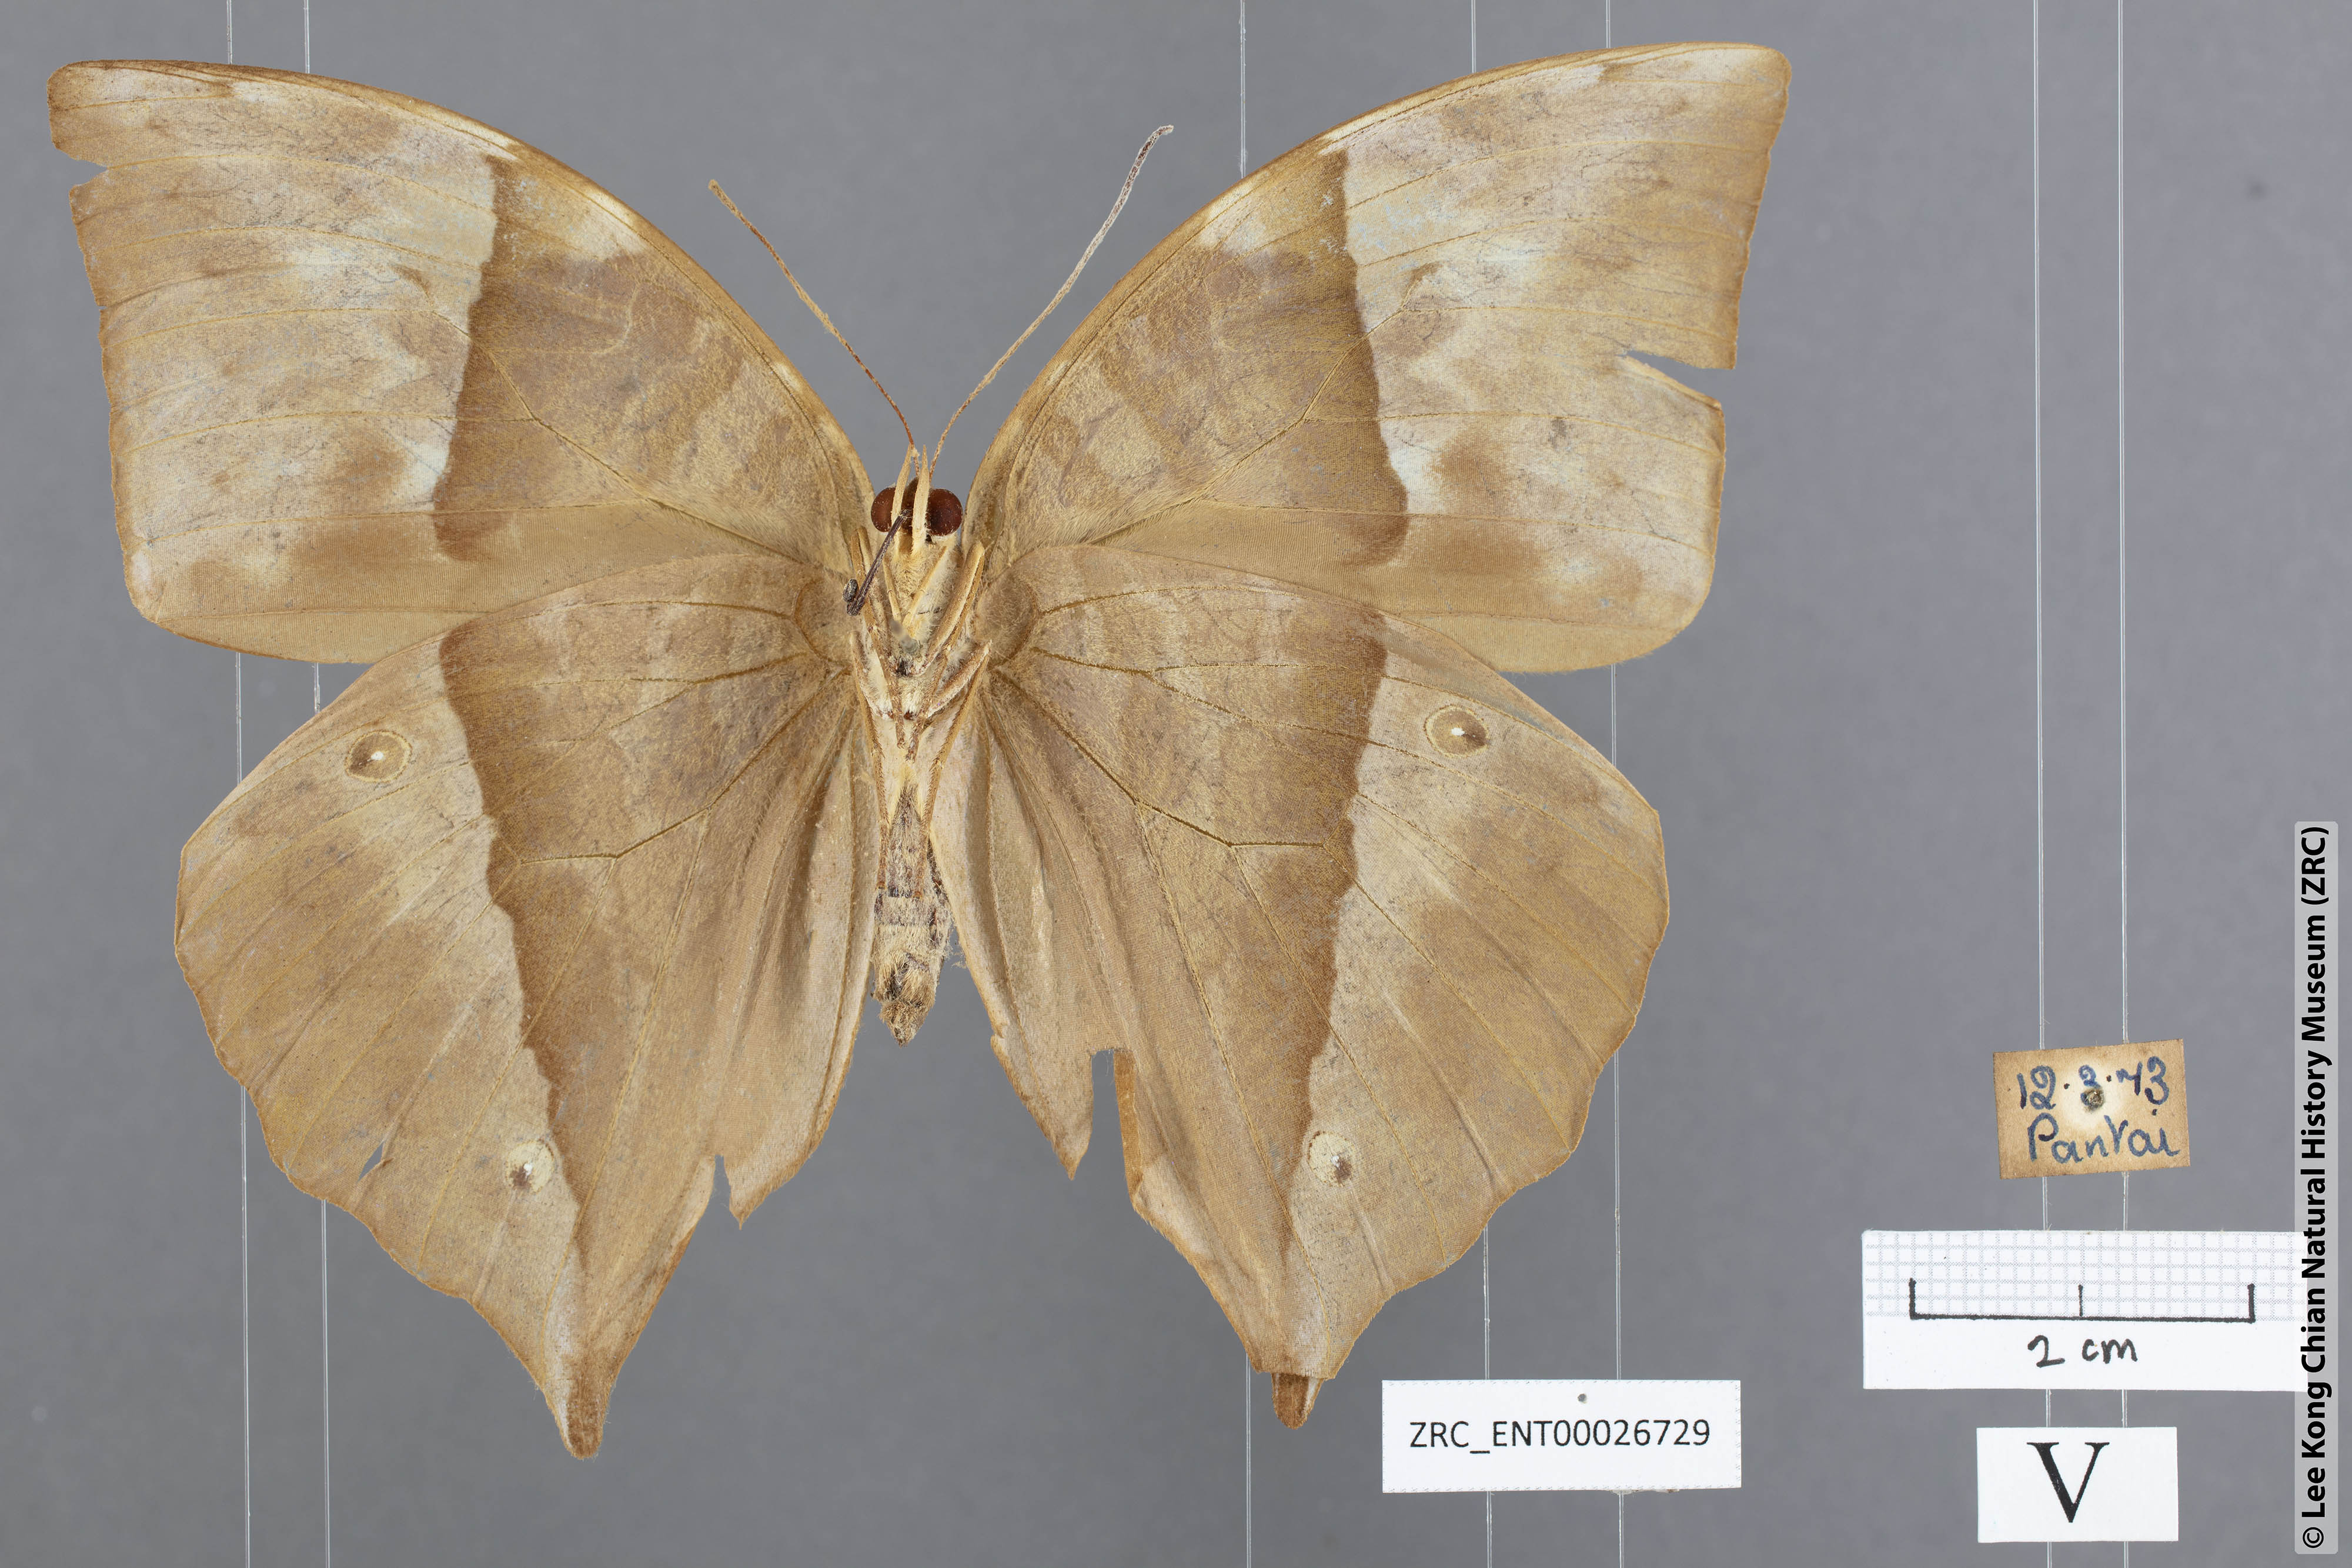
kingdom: Animalia
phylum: Arthropoda
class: Insecta
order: Lepidoptera
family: Nymphalidae
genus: Zeuxidia
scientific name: Zeuxidia doubledaii
